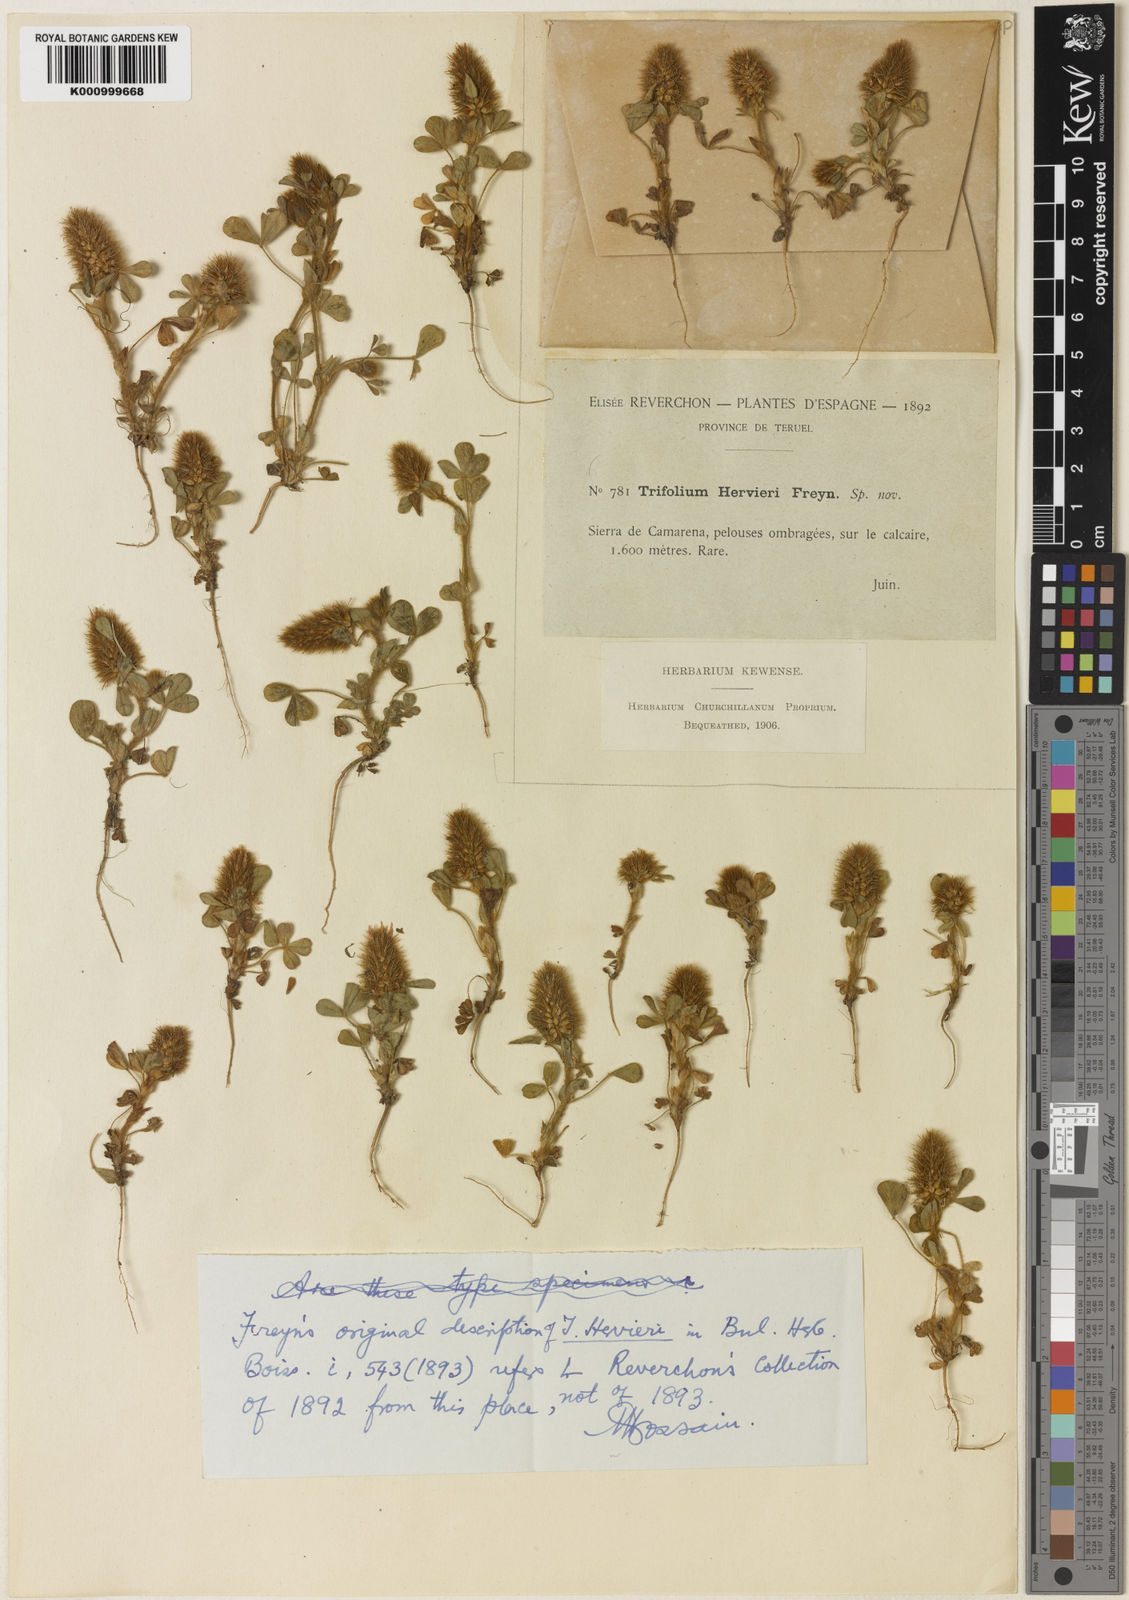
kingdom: Plantae
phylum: Tracheophyta
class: Magnoliopsida
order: Fabales
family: Fabaceae
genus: Trifolium
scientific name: Trifolium
